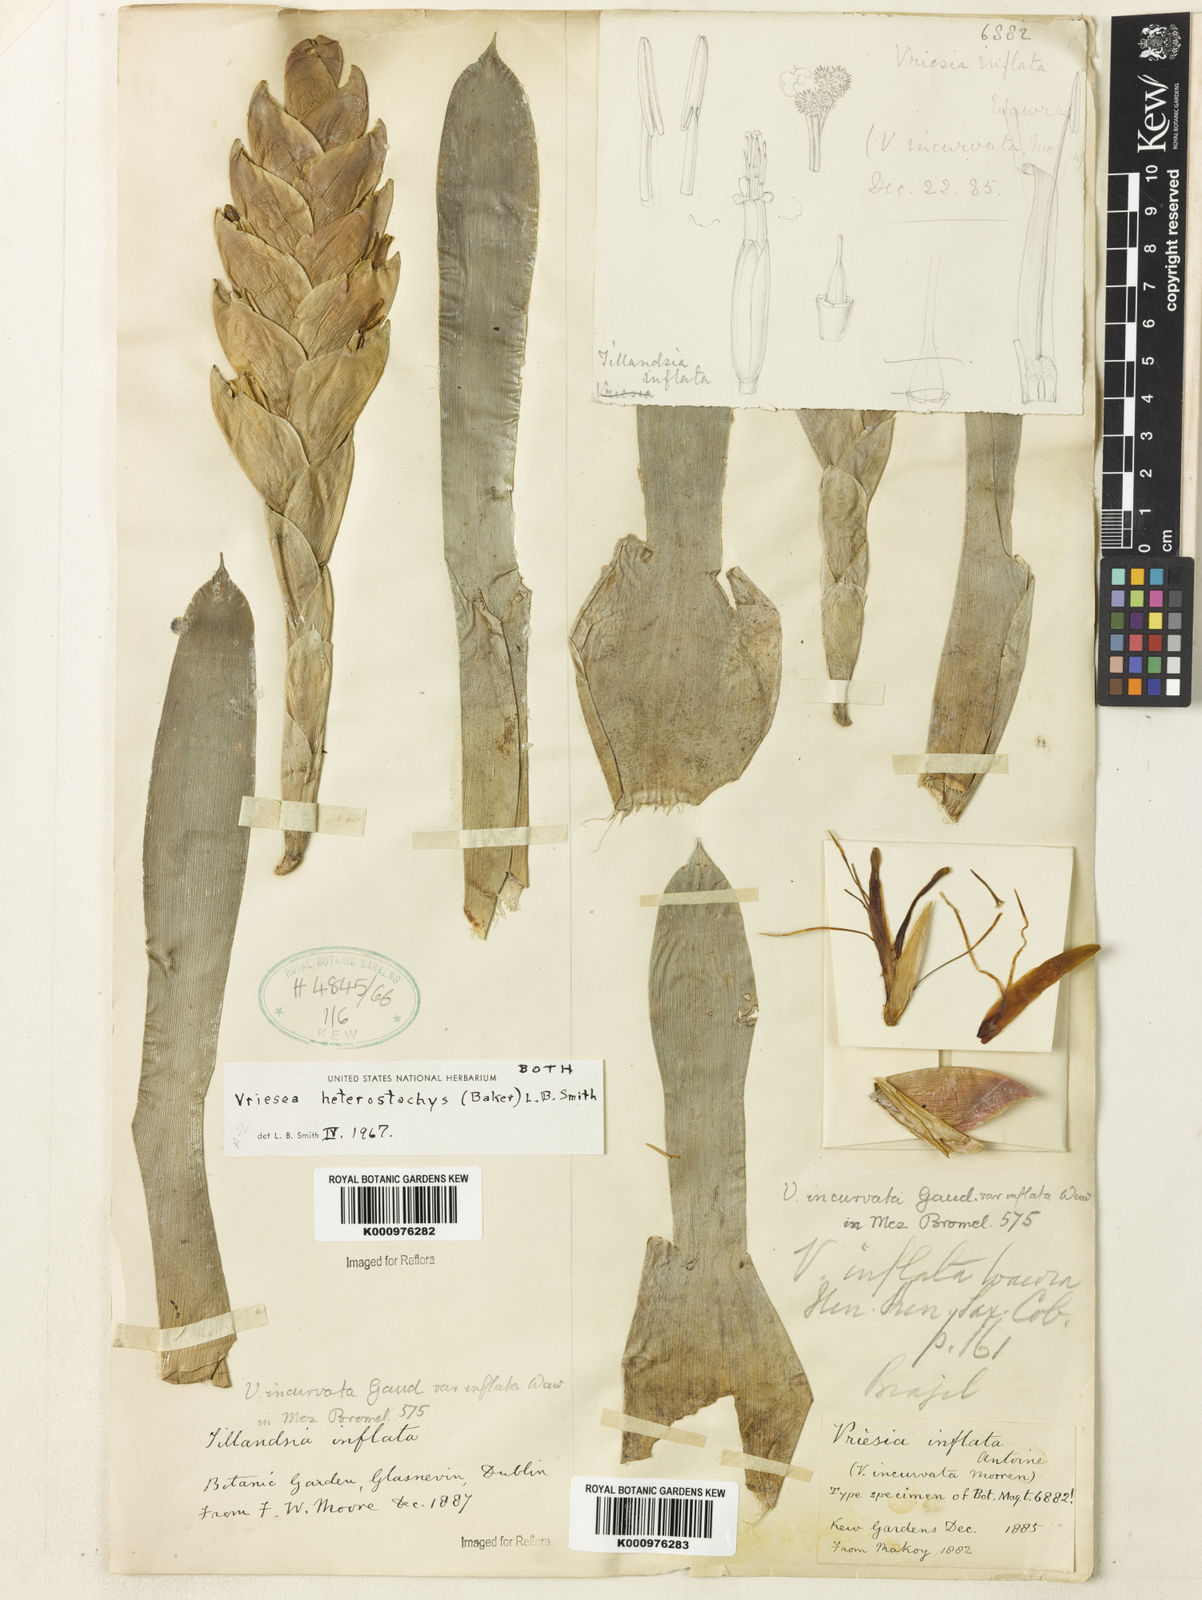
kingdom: Plantae
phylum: Tracheophyta
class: Liliopsida
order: Poales
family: Bromeliaceae
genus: Vriesea
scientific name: Vriesea heterostachys
